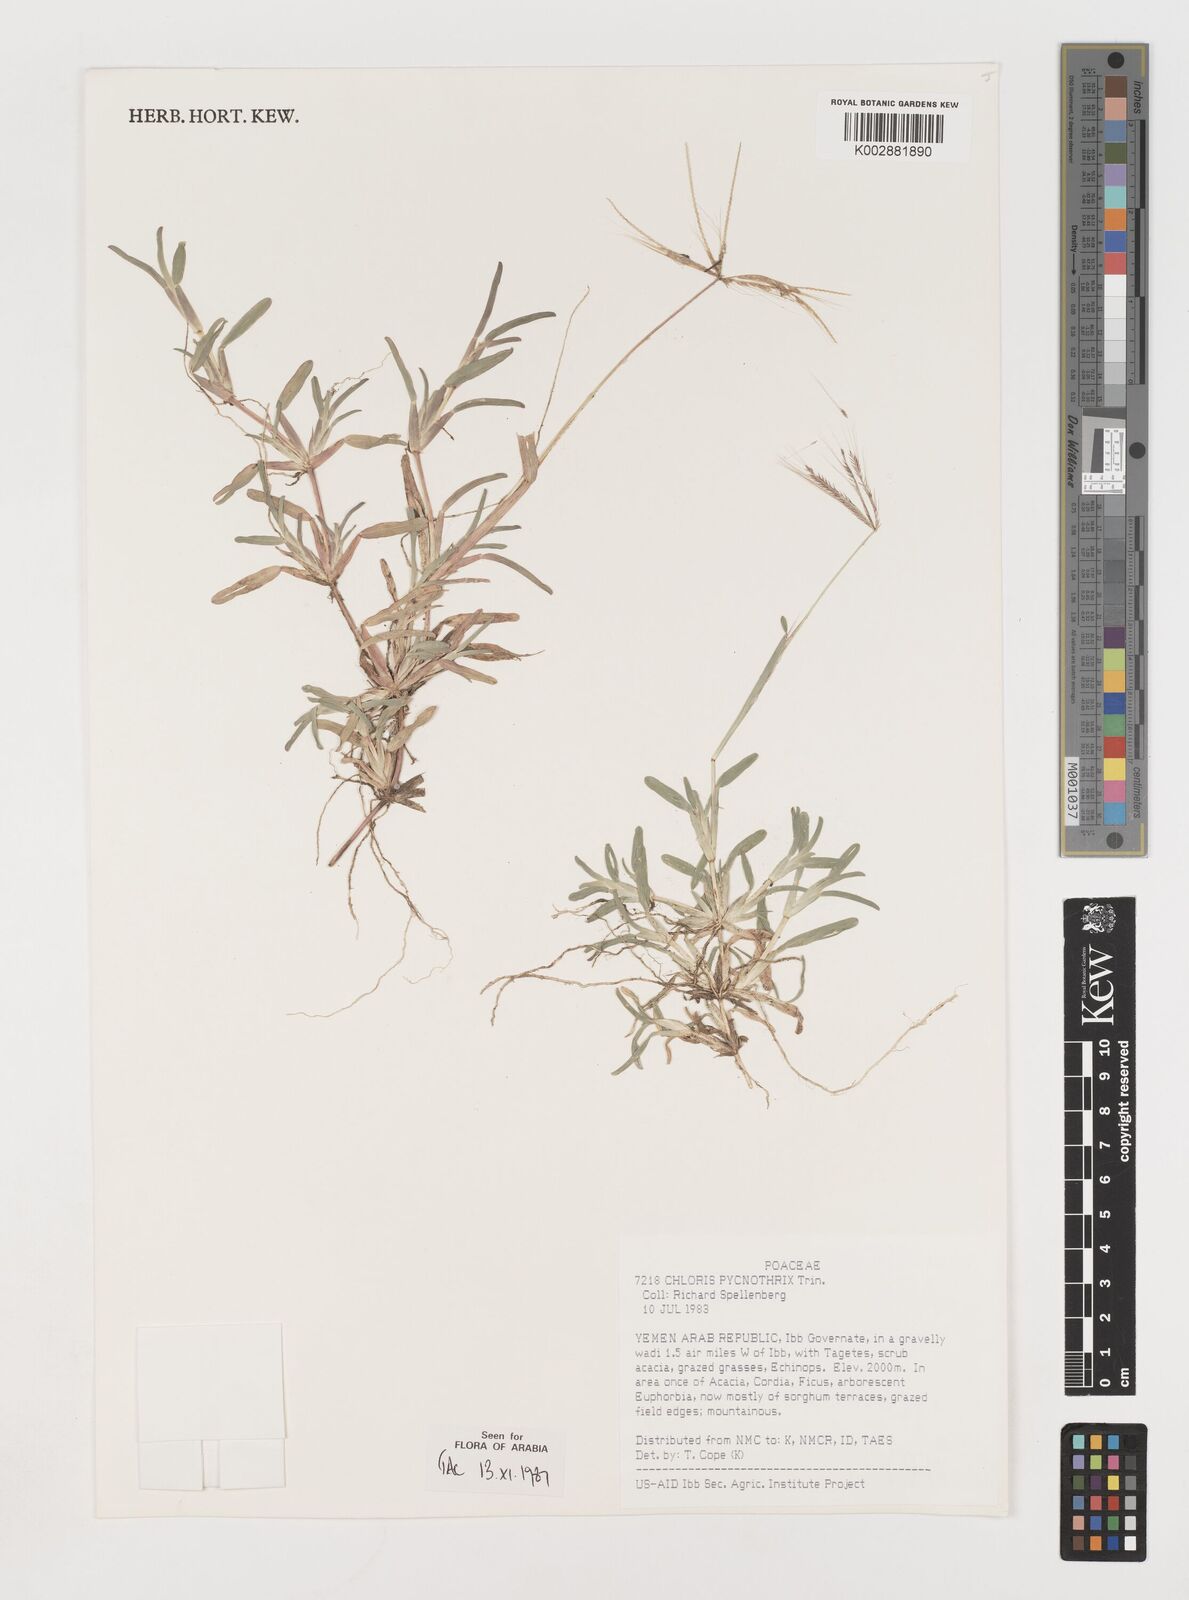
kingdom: Plantae
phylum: Tracheophyta
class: Liliopsida
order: Poales
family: Poaceae
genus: Chloris
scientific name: Chloris pycnothrix
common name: Spiderweb chloris
